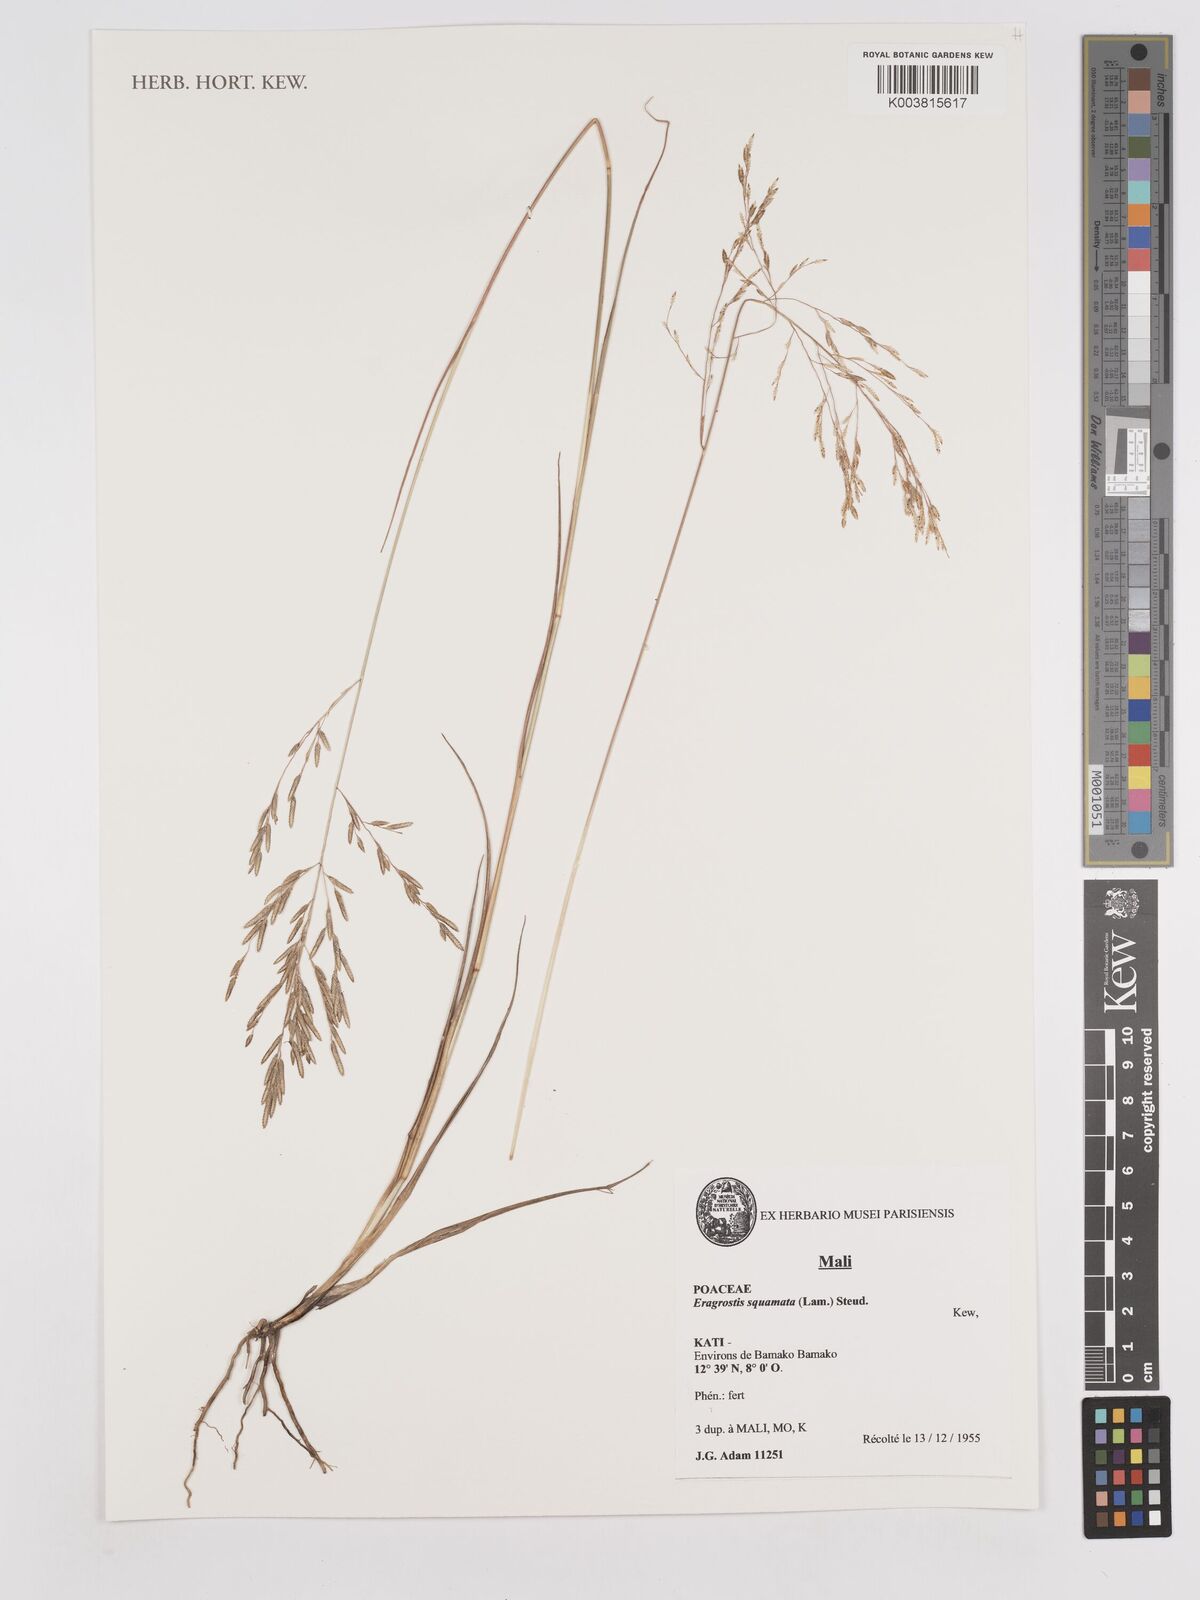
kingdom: Plantae
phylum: Tracheophyta
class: Liliopsida
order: Poales
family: Poaceae
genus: Eragrostis
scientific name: Eragrostis squamata
